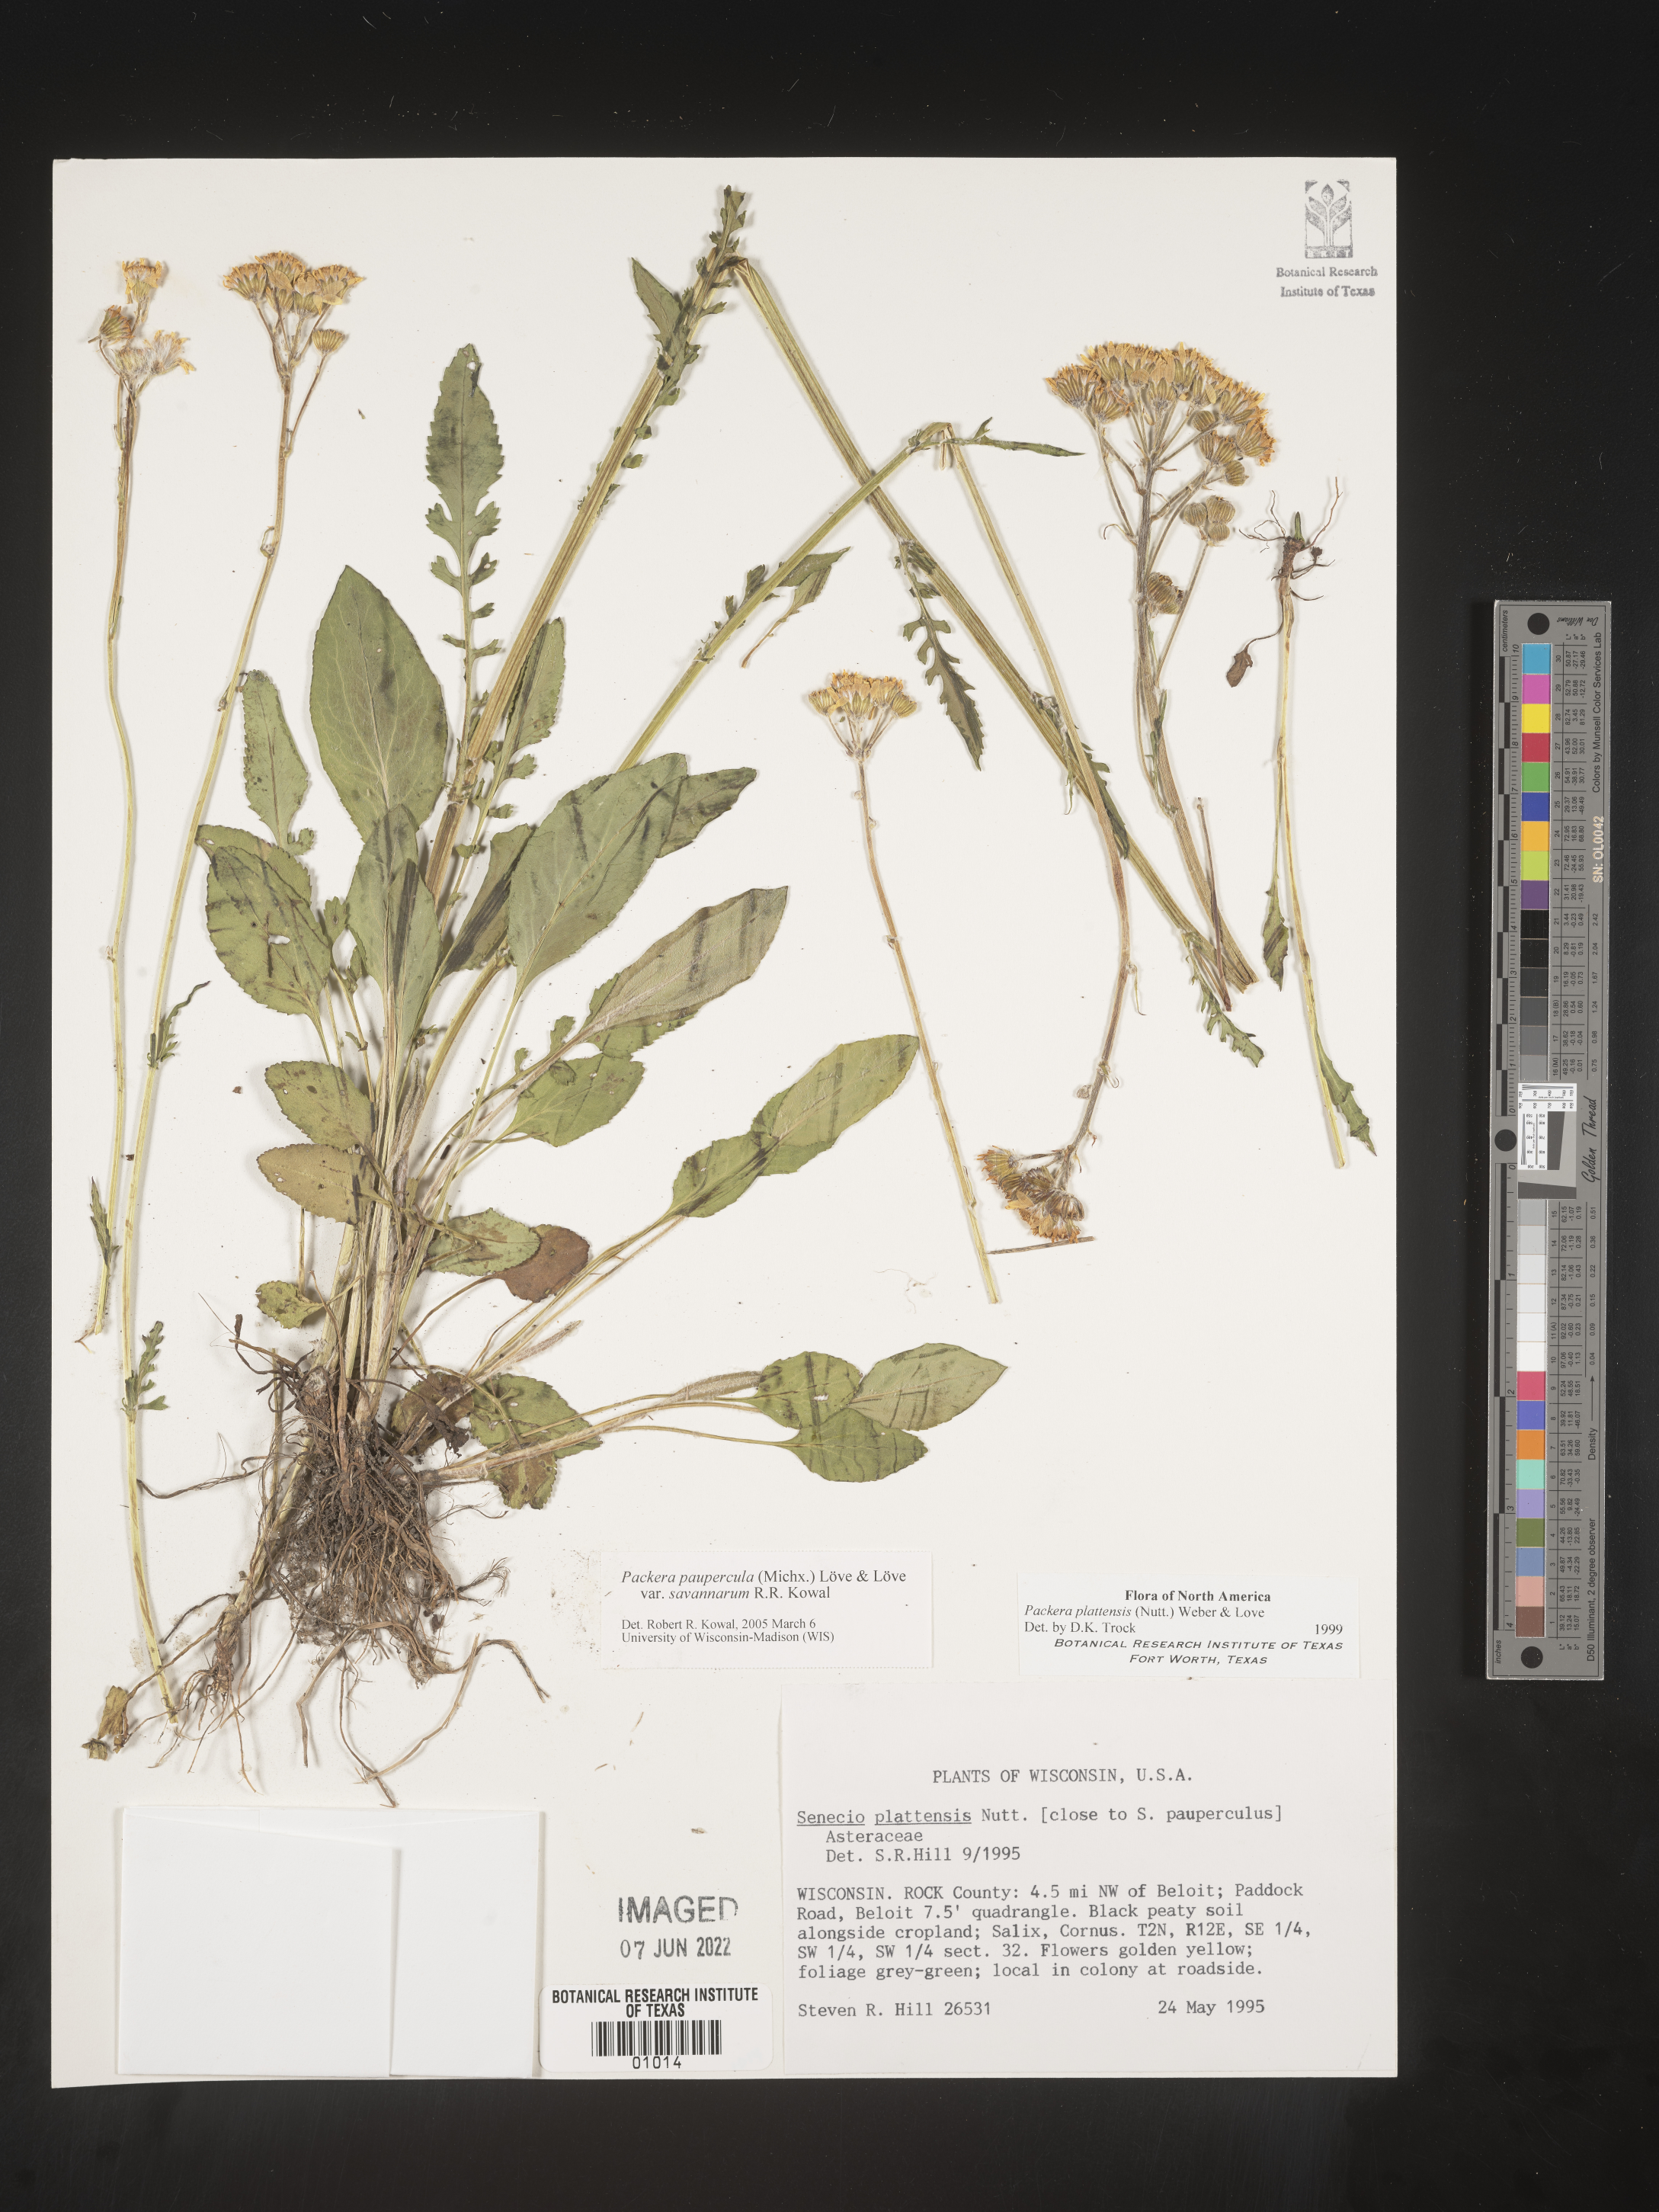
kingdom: Plantae
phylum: Tracheophyta
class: Magnoliopsida
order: Asterales
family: Asteraceae
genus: Packera
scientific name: Packera paupercula
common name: Balsam groundsel
